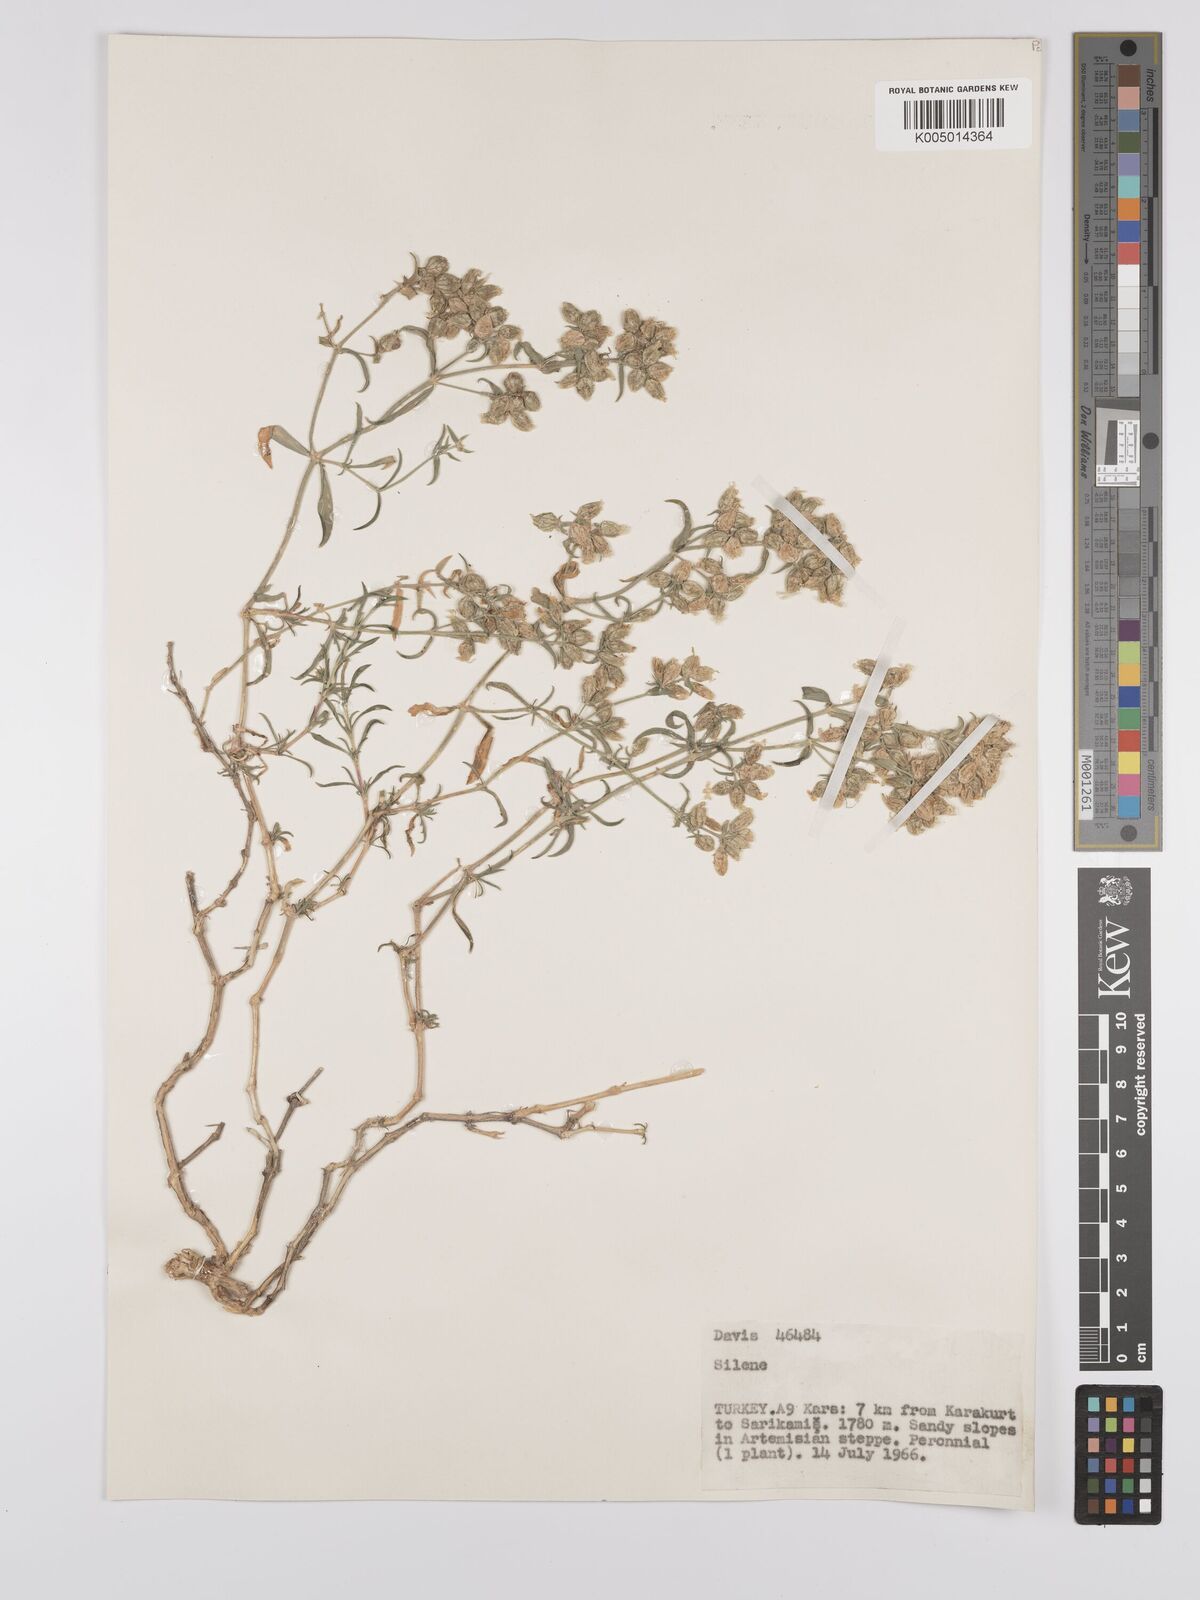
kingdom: Plantae
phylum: Tracheophyta
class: Magnoliopsida
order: Caryophyllales
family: Caryophyllaceae
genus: Silene
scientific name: Silene
